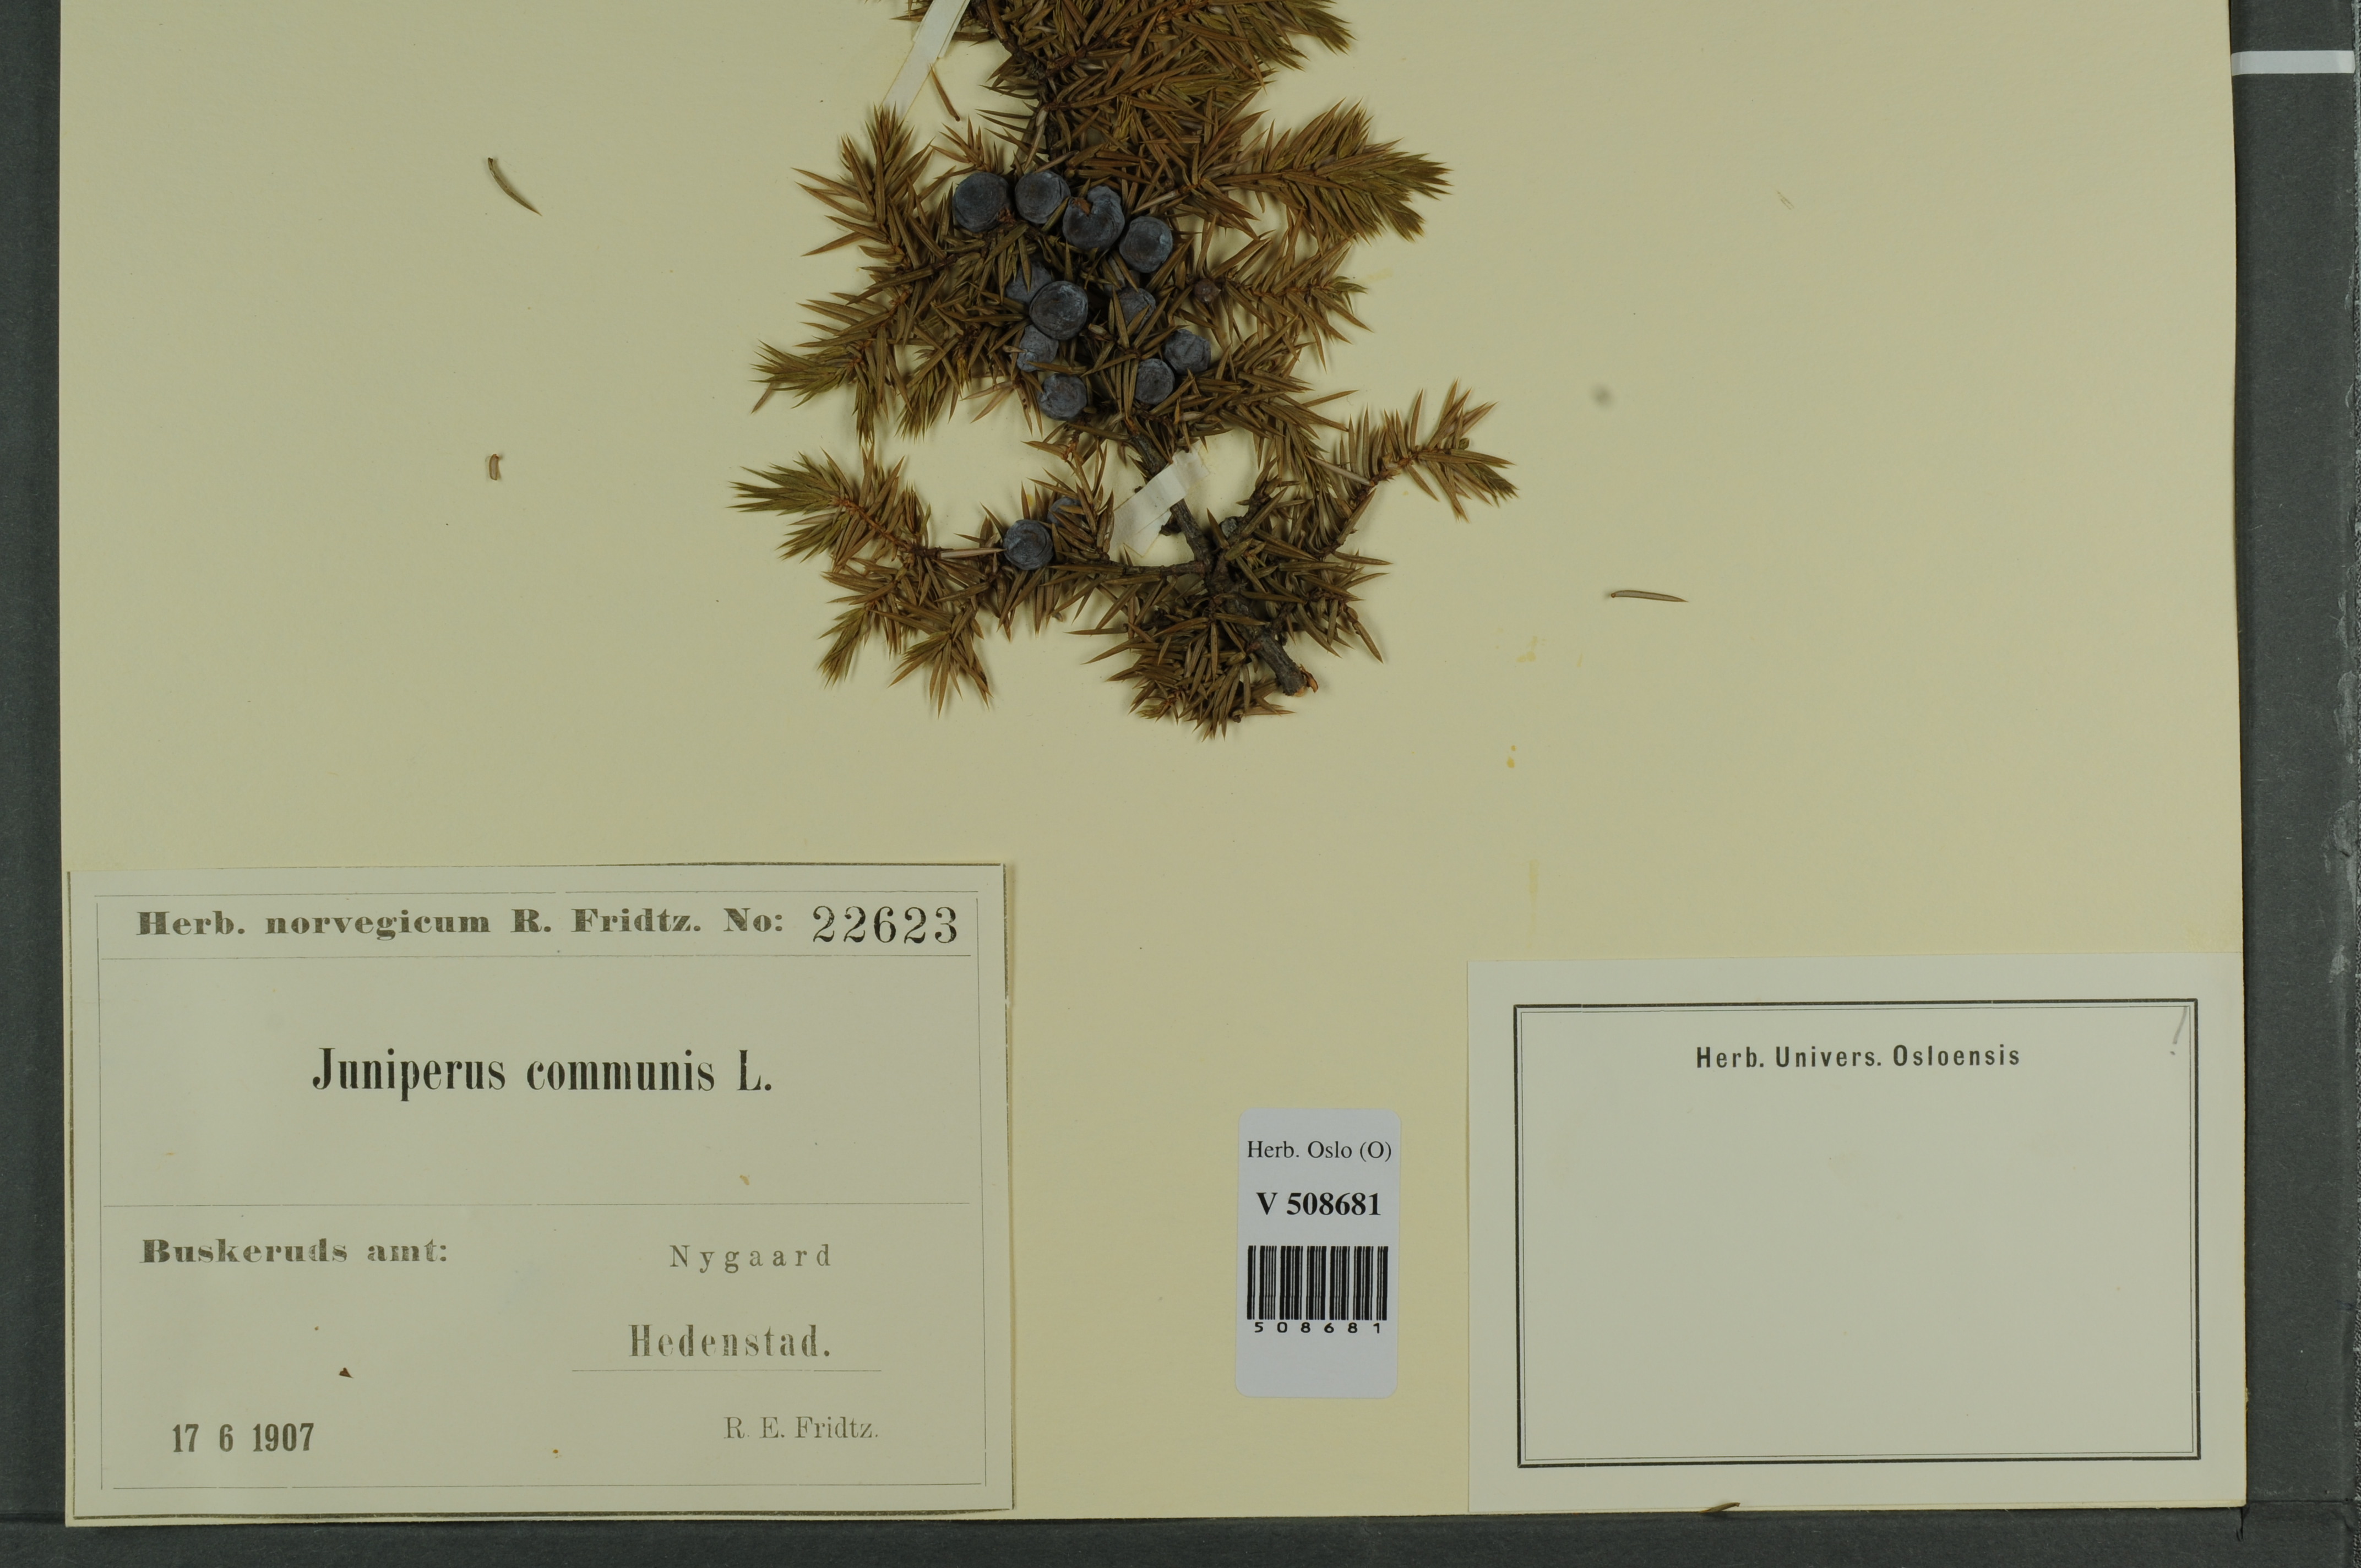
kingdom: Plantae
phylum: Tracheophyta
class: Pinopsida
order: Pinales
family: Cupressaceae
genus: Juniperus
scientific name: Juniperus communis
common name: Common juniper
